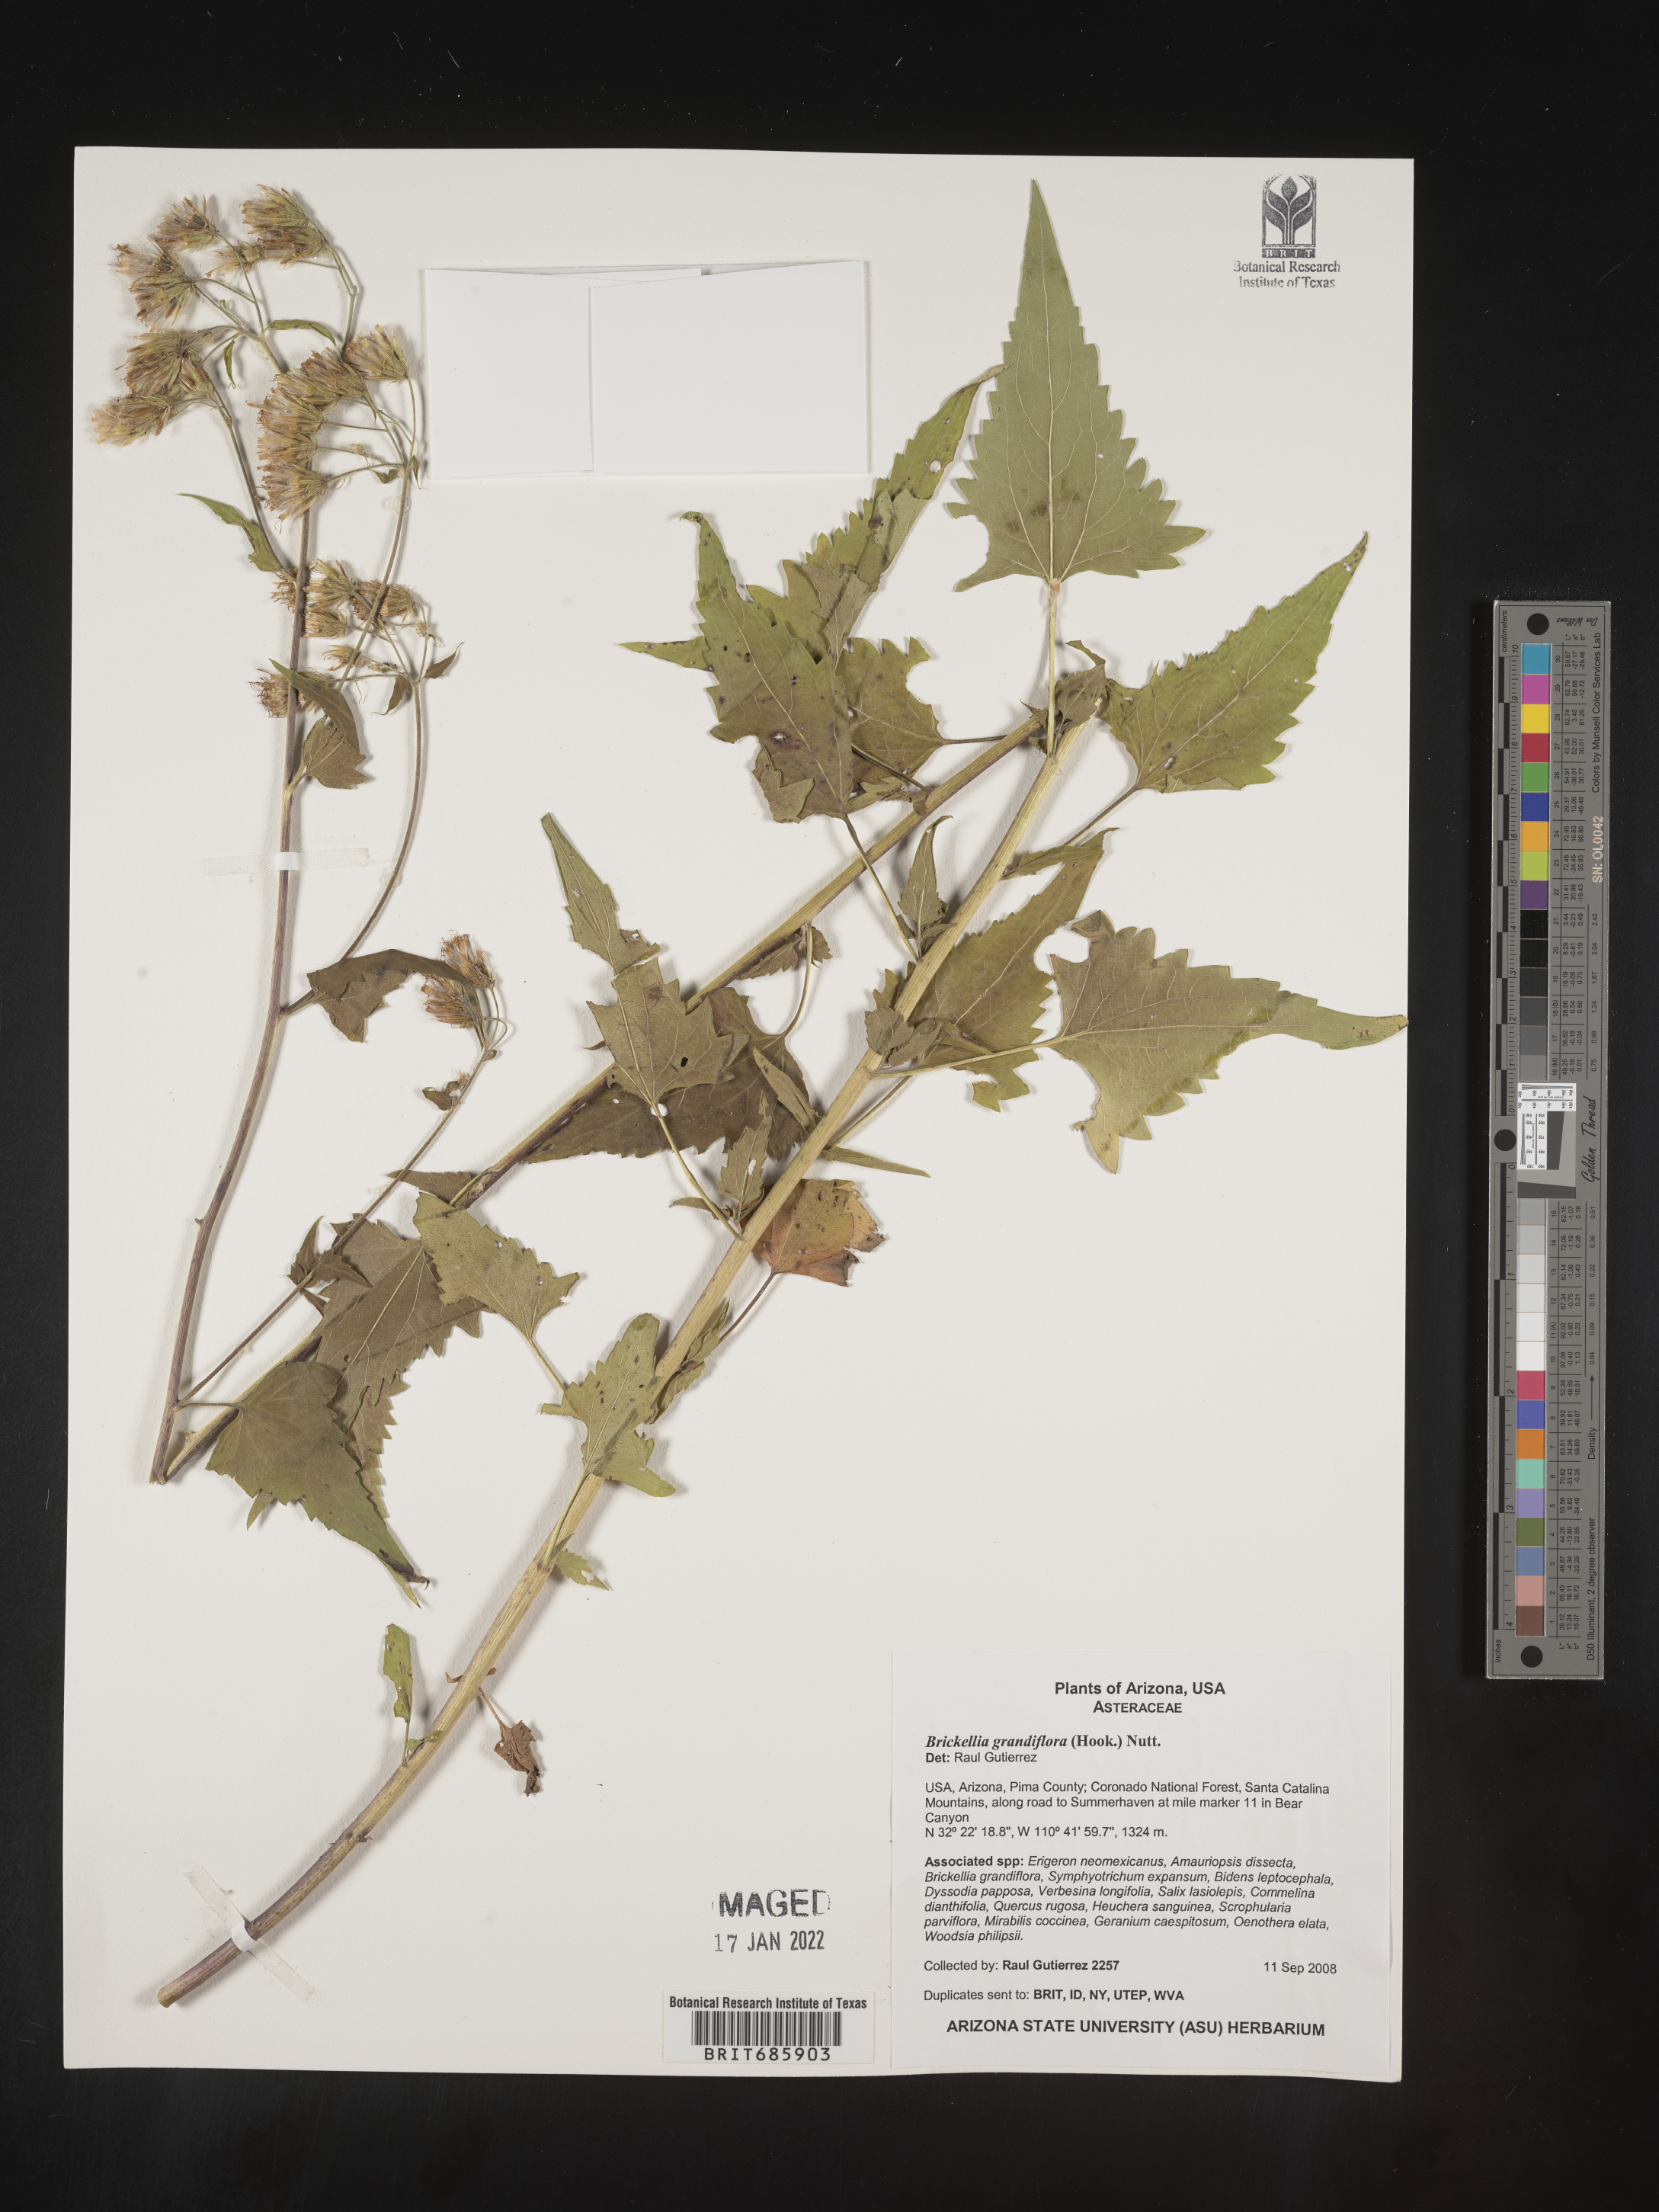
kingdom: Plantae
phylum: Tracheophyta
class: Magnoliopsida
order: Asterales
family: Asteraceae
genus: Brickellia
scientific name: Brickellia grandiflora
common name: Large-flowered brickellia
